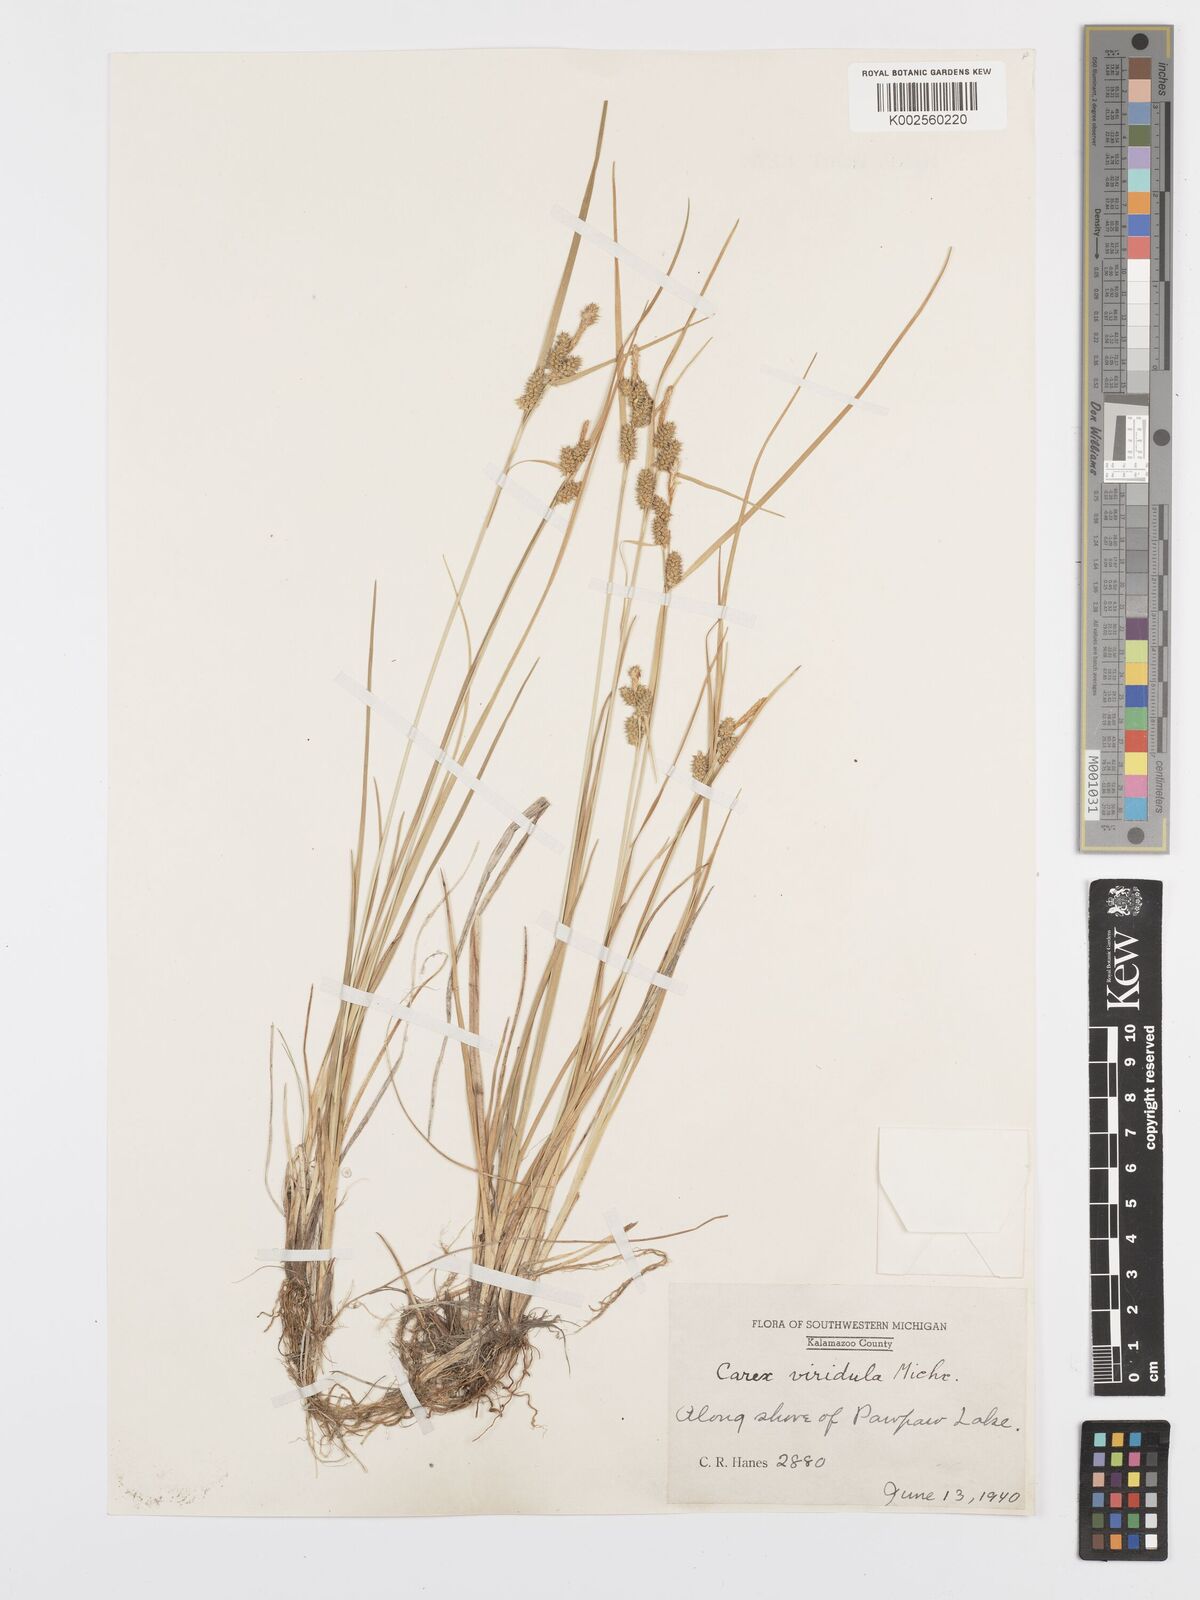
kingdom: Plantae
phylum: Tracheophyta
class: Liliopsida
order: Poales
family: Cyperaceae
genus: Carex
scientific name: Carex oederi
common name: Common & small-fruited yellow-sedge
